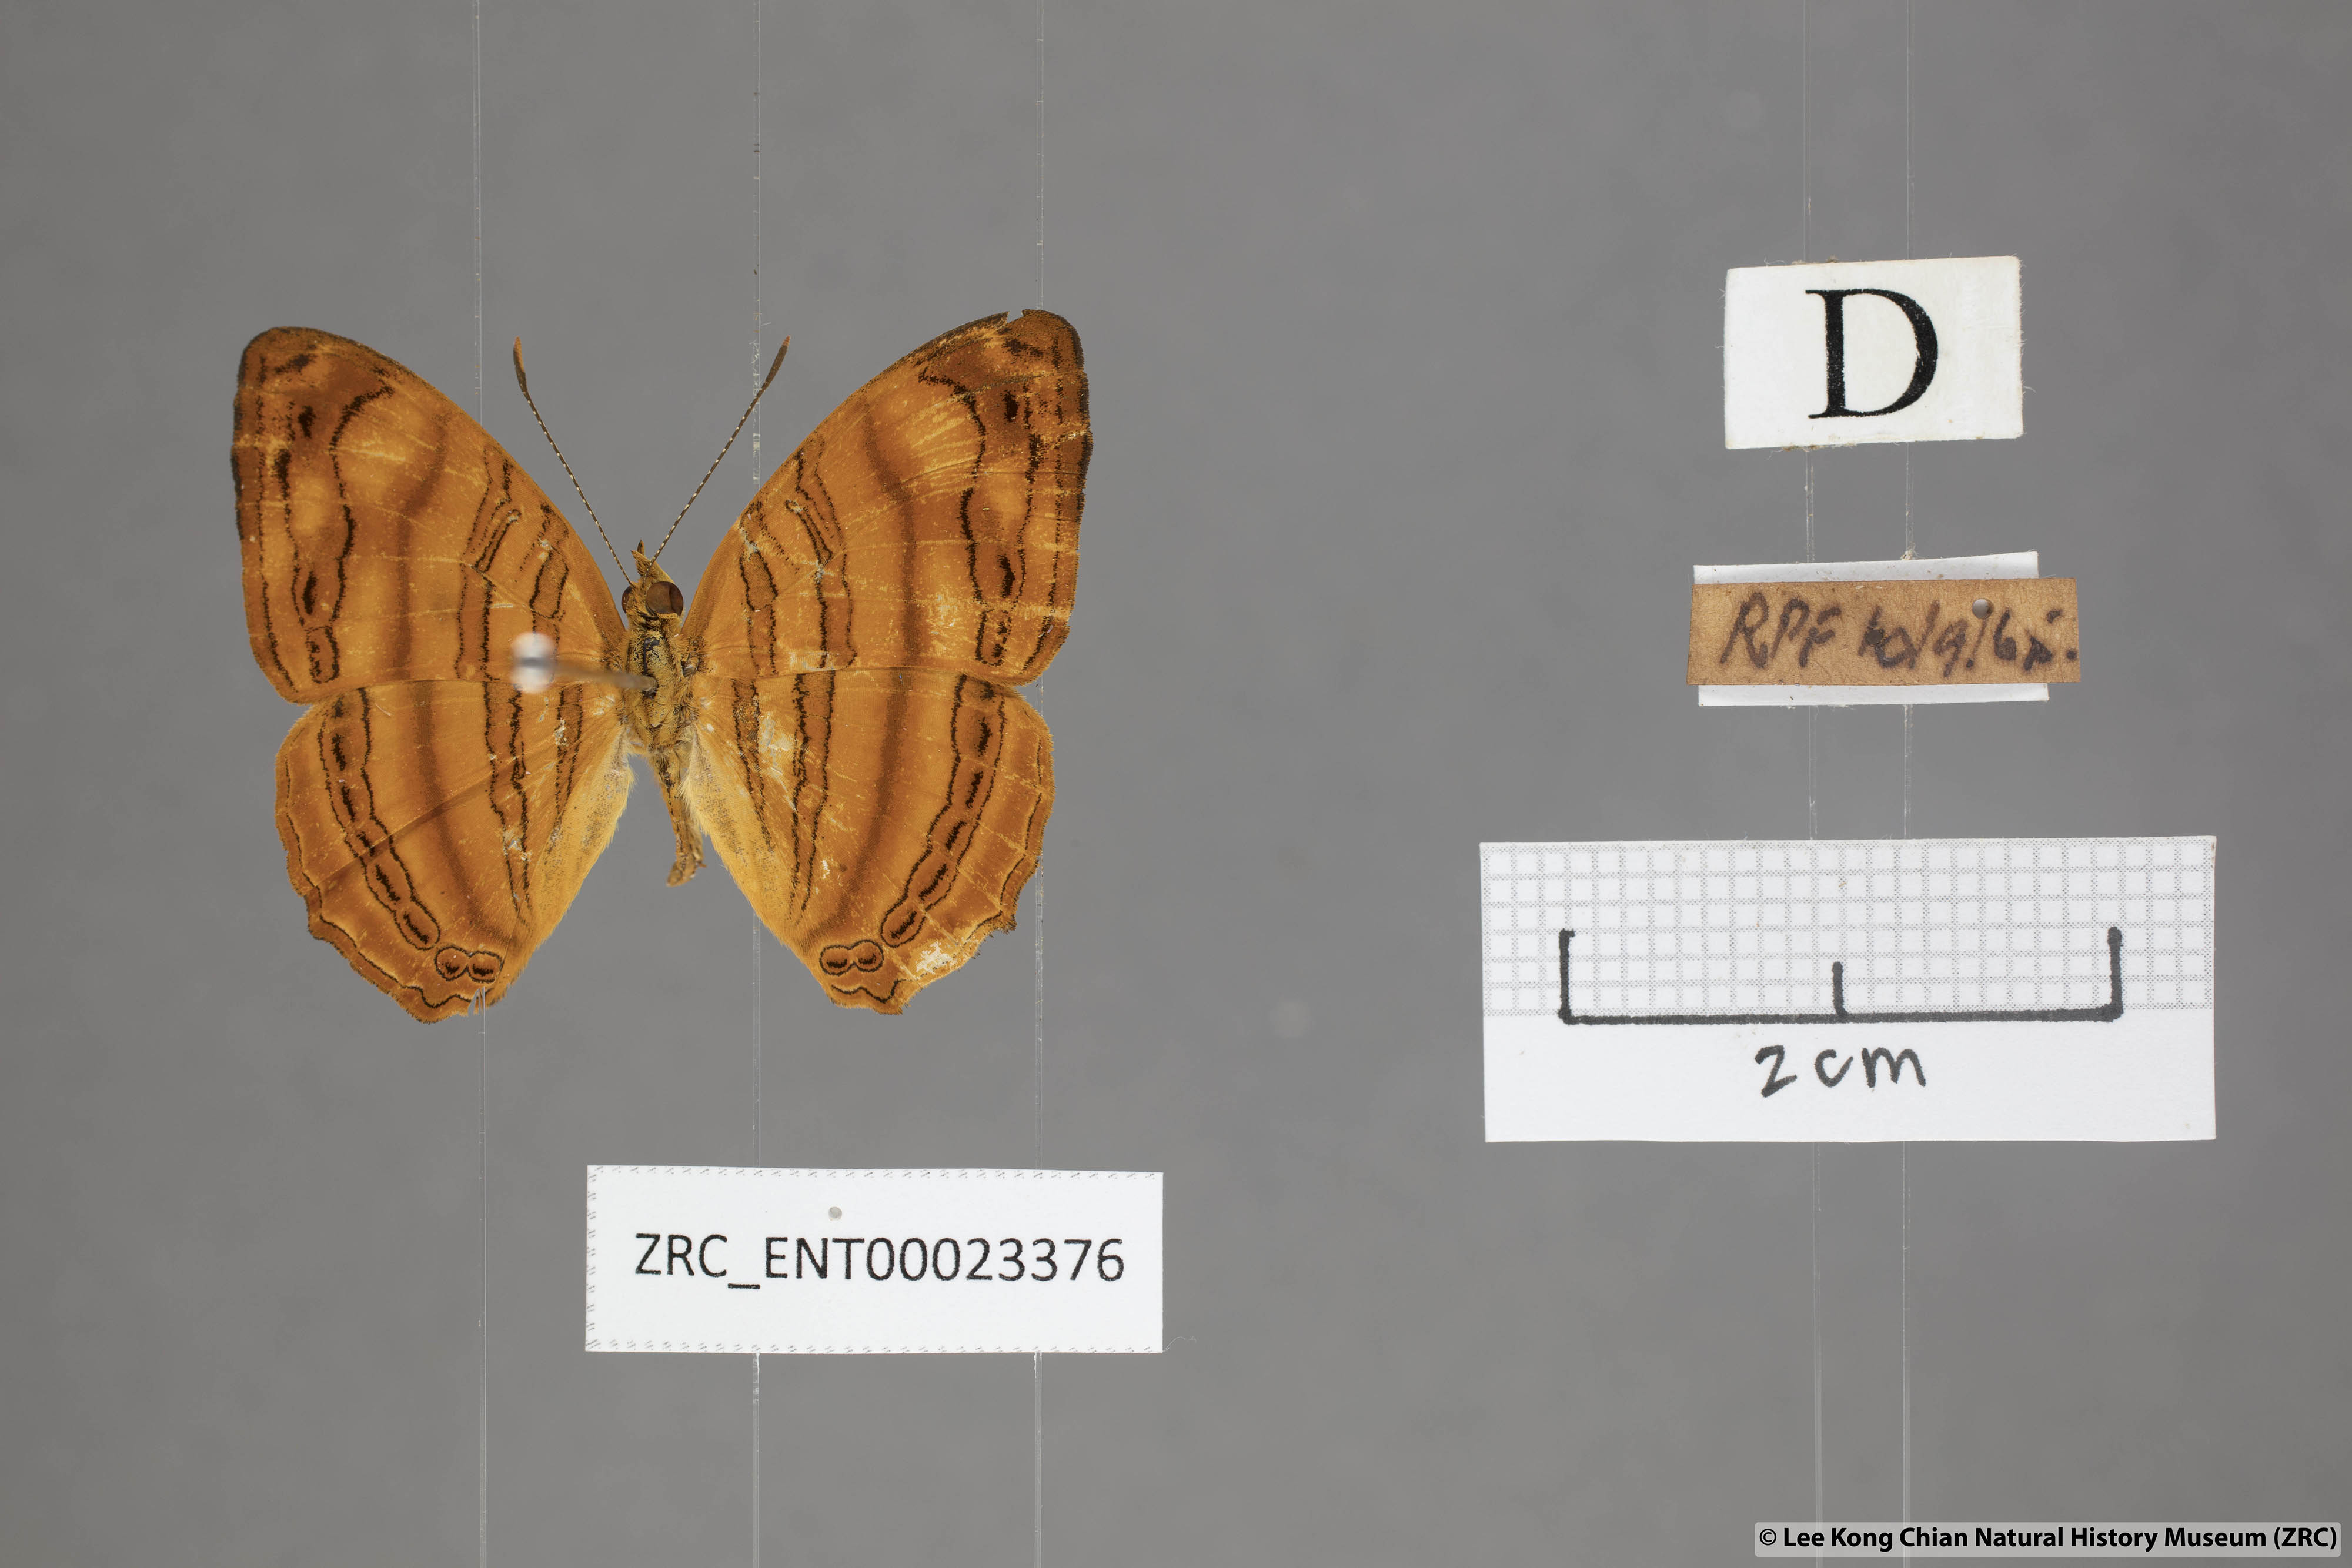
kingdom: Animalia
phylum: Arthropoda
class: Insecta
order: Lepidoptera
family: Nymphalidae
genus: Chersonesia
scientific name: Chersonesia rahria
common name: Wavy maplet
